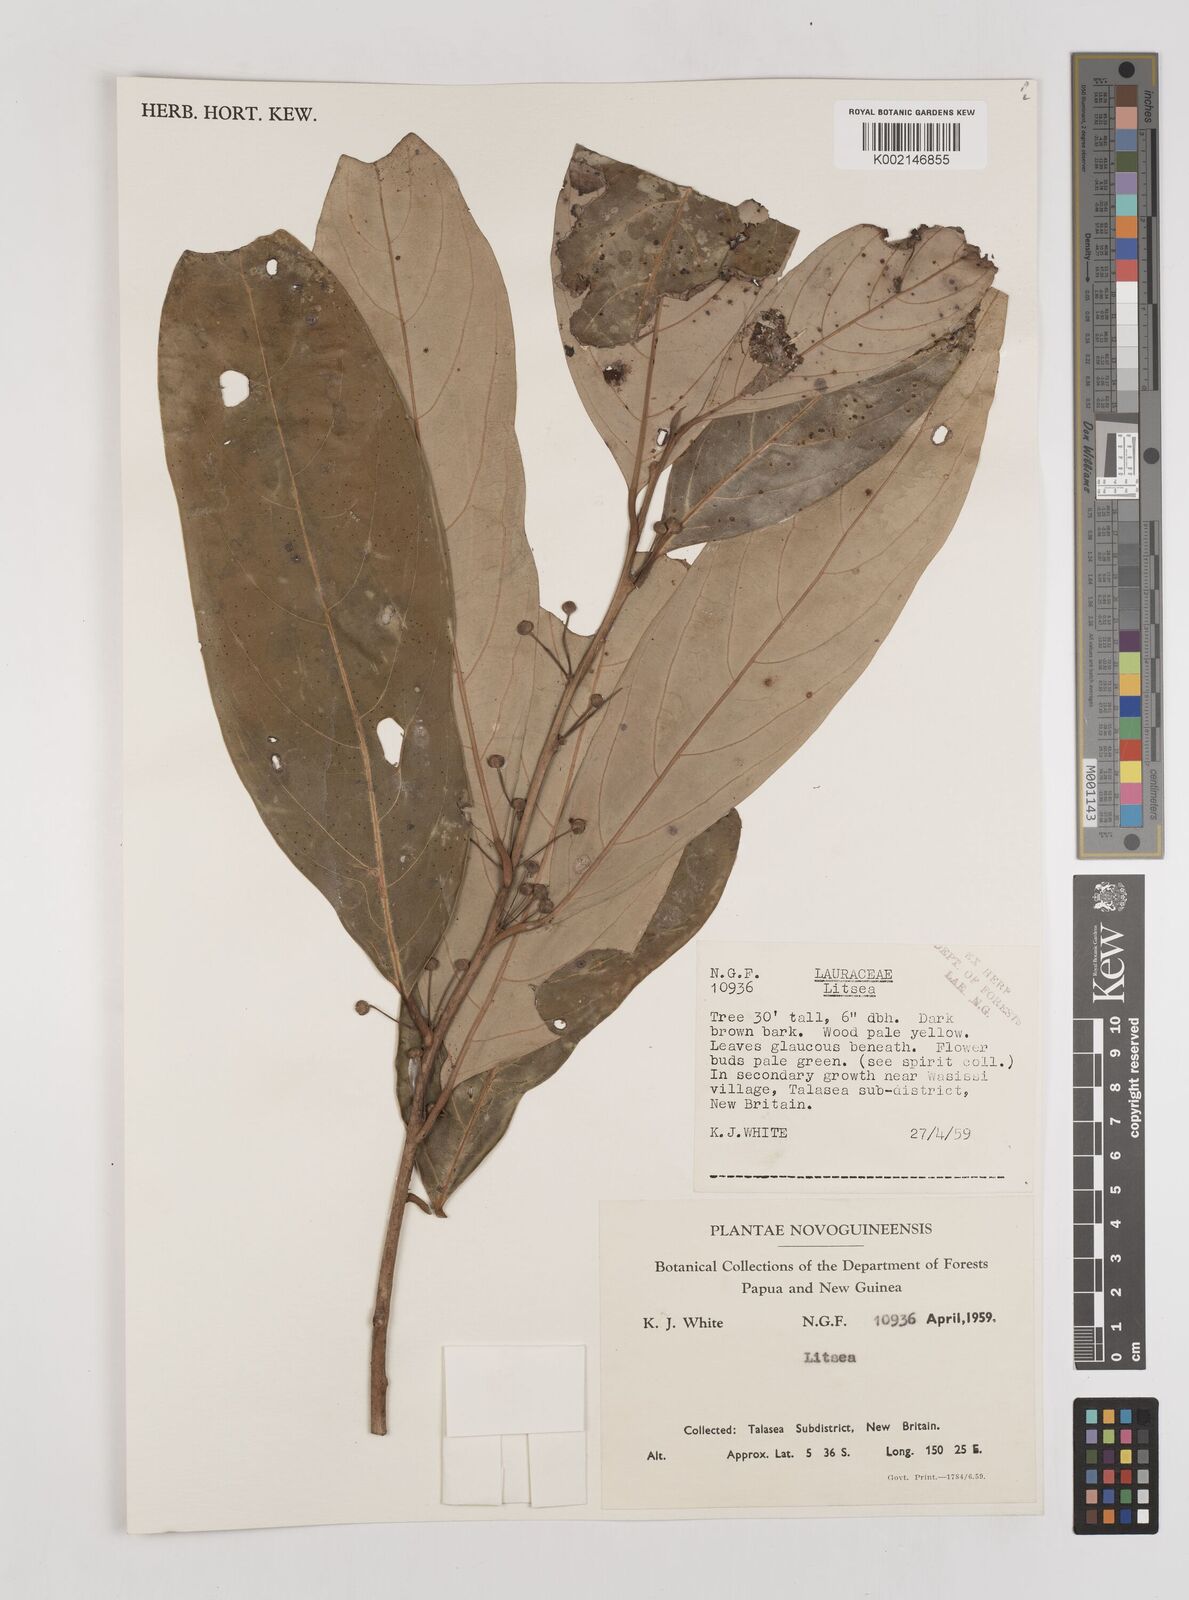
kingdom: Plantae
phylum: Tracheophyta
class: Magnoliopsida
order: Laurales
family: Lauraceae
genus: Litsea
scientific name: Litsea
